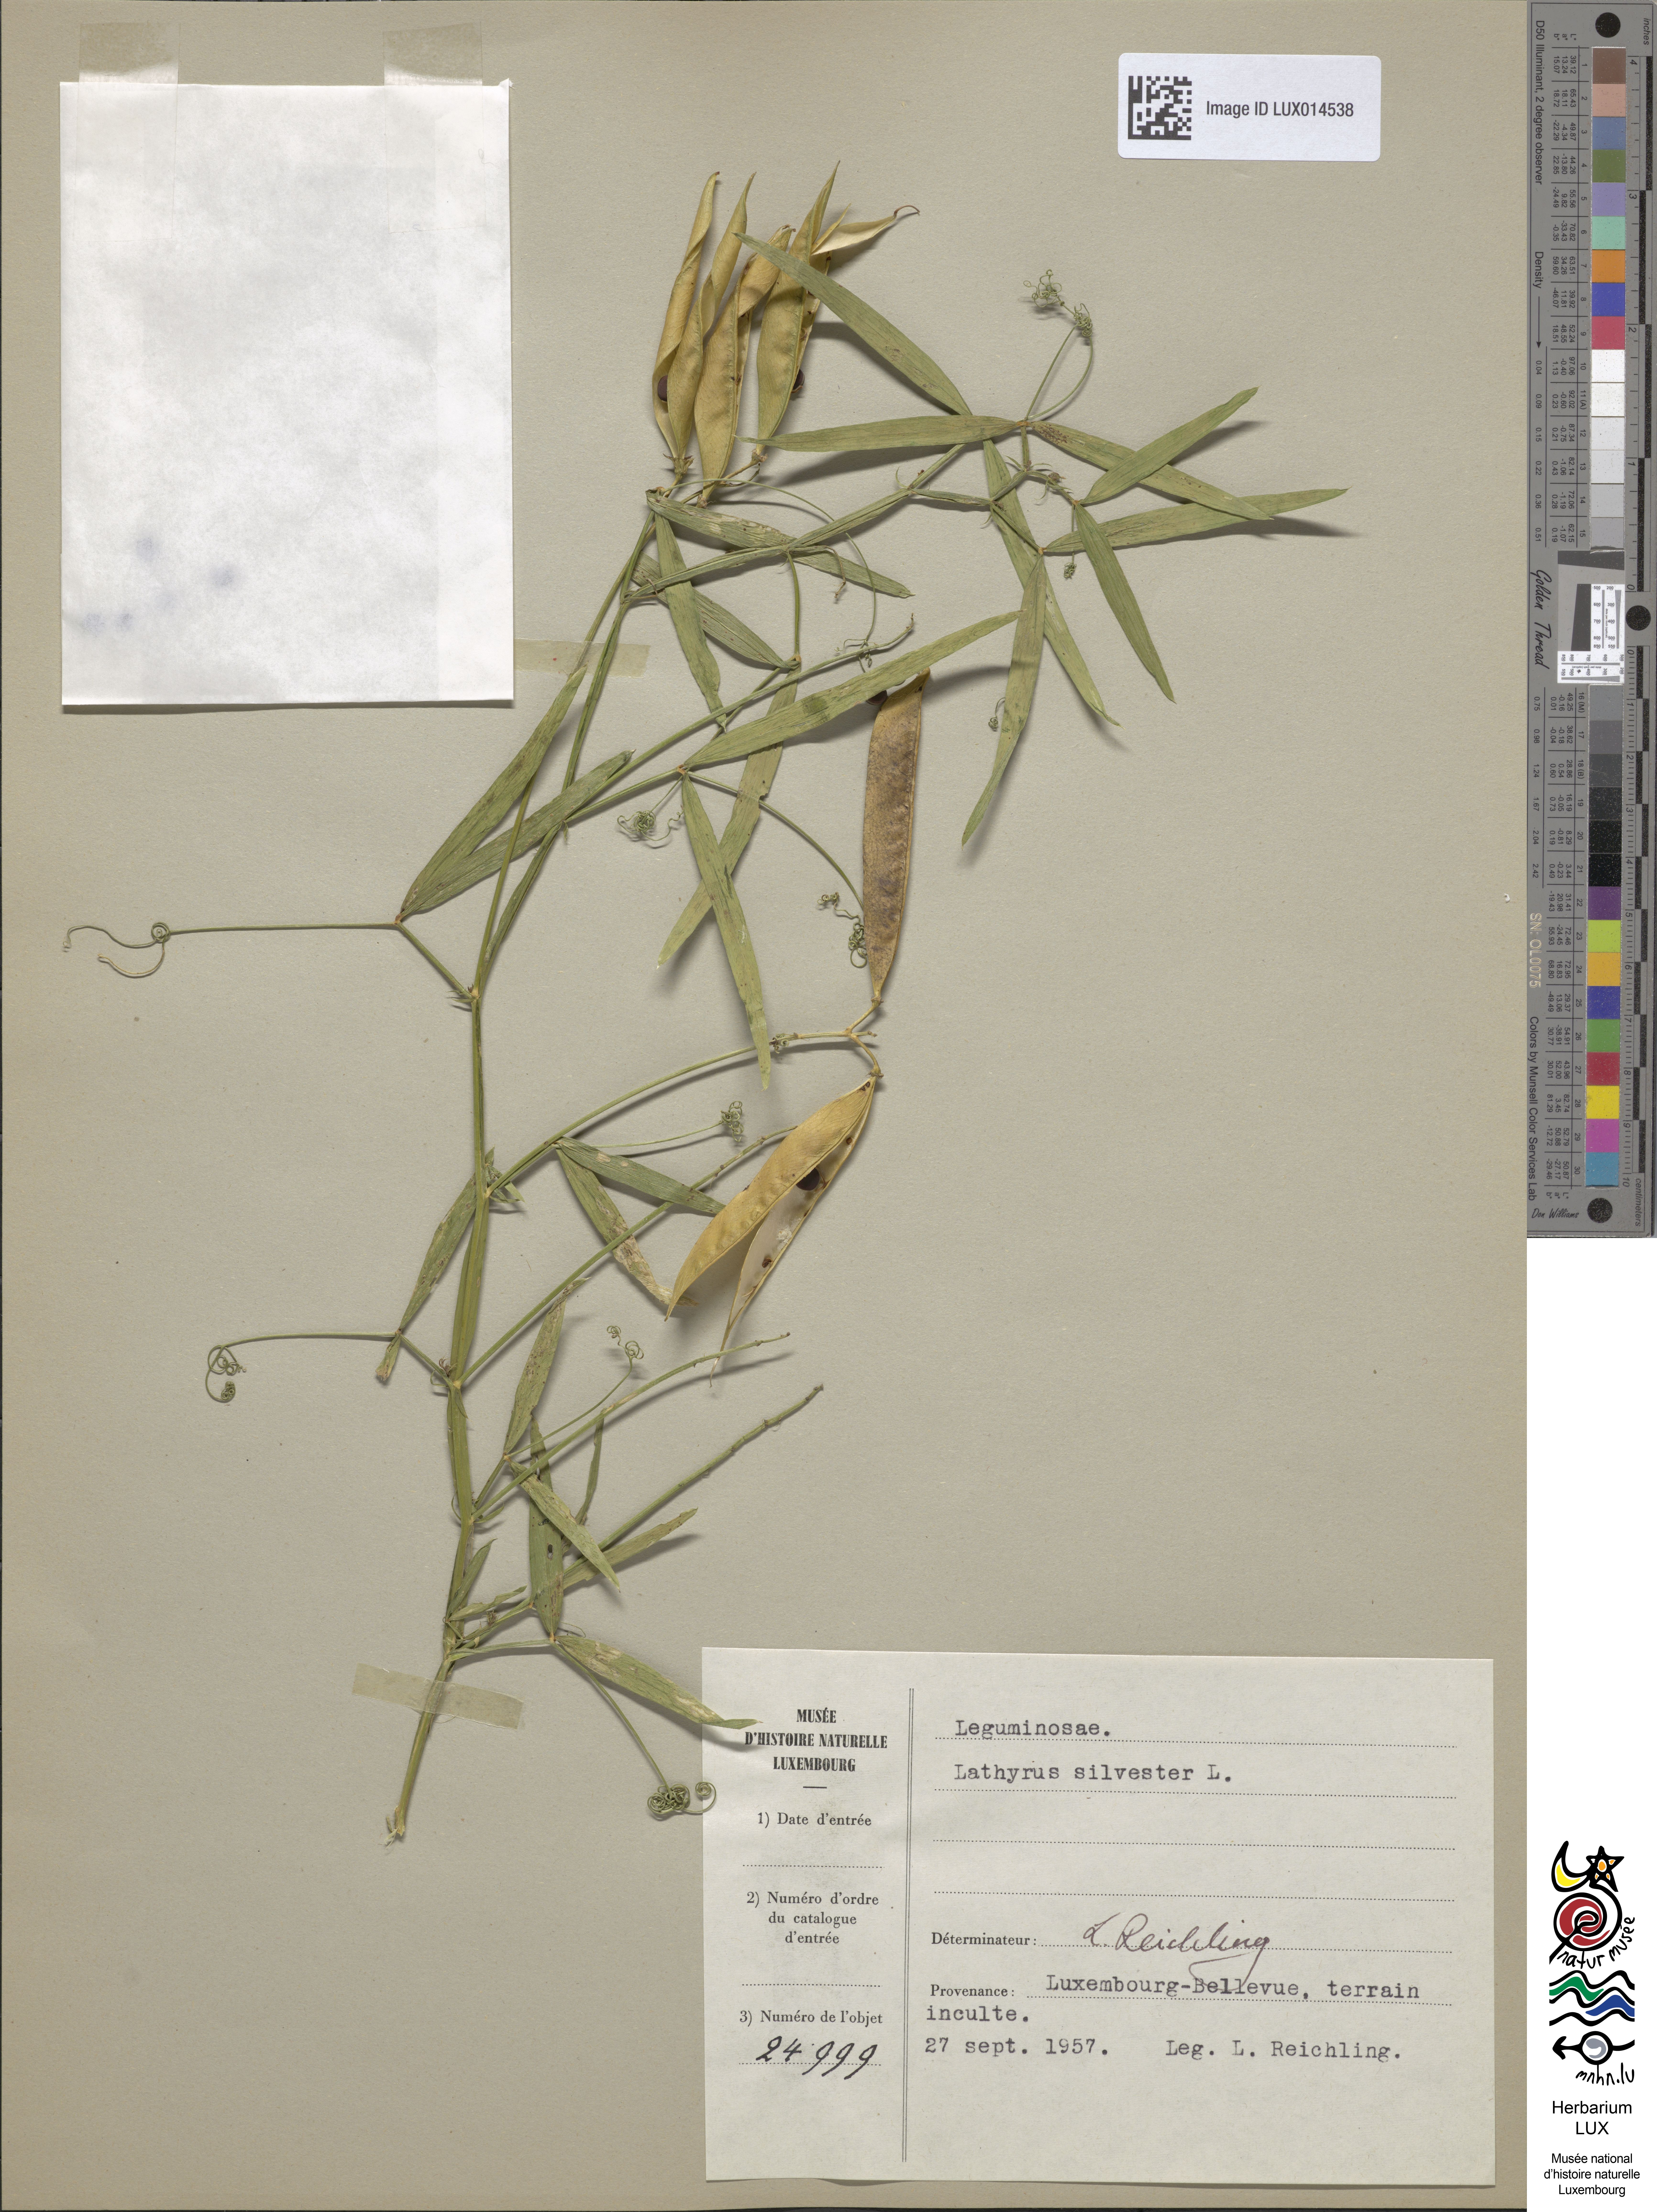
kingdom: Plantae
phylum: Tracheophyta
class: Magnoliopsida
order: Fabales
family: Fabaceae
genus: Lathyrus
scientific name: Lathyrus sylvestris
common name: Flat pea
